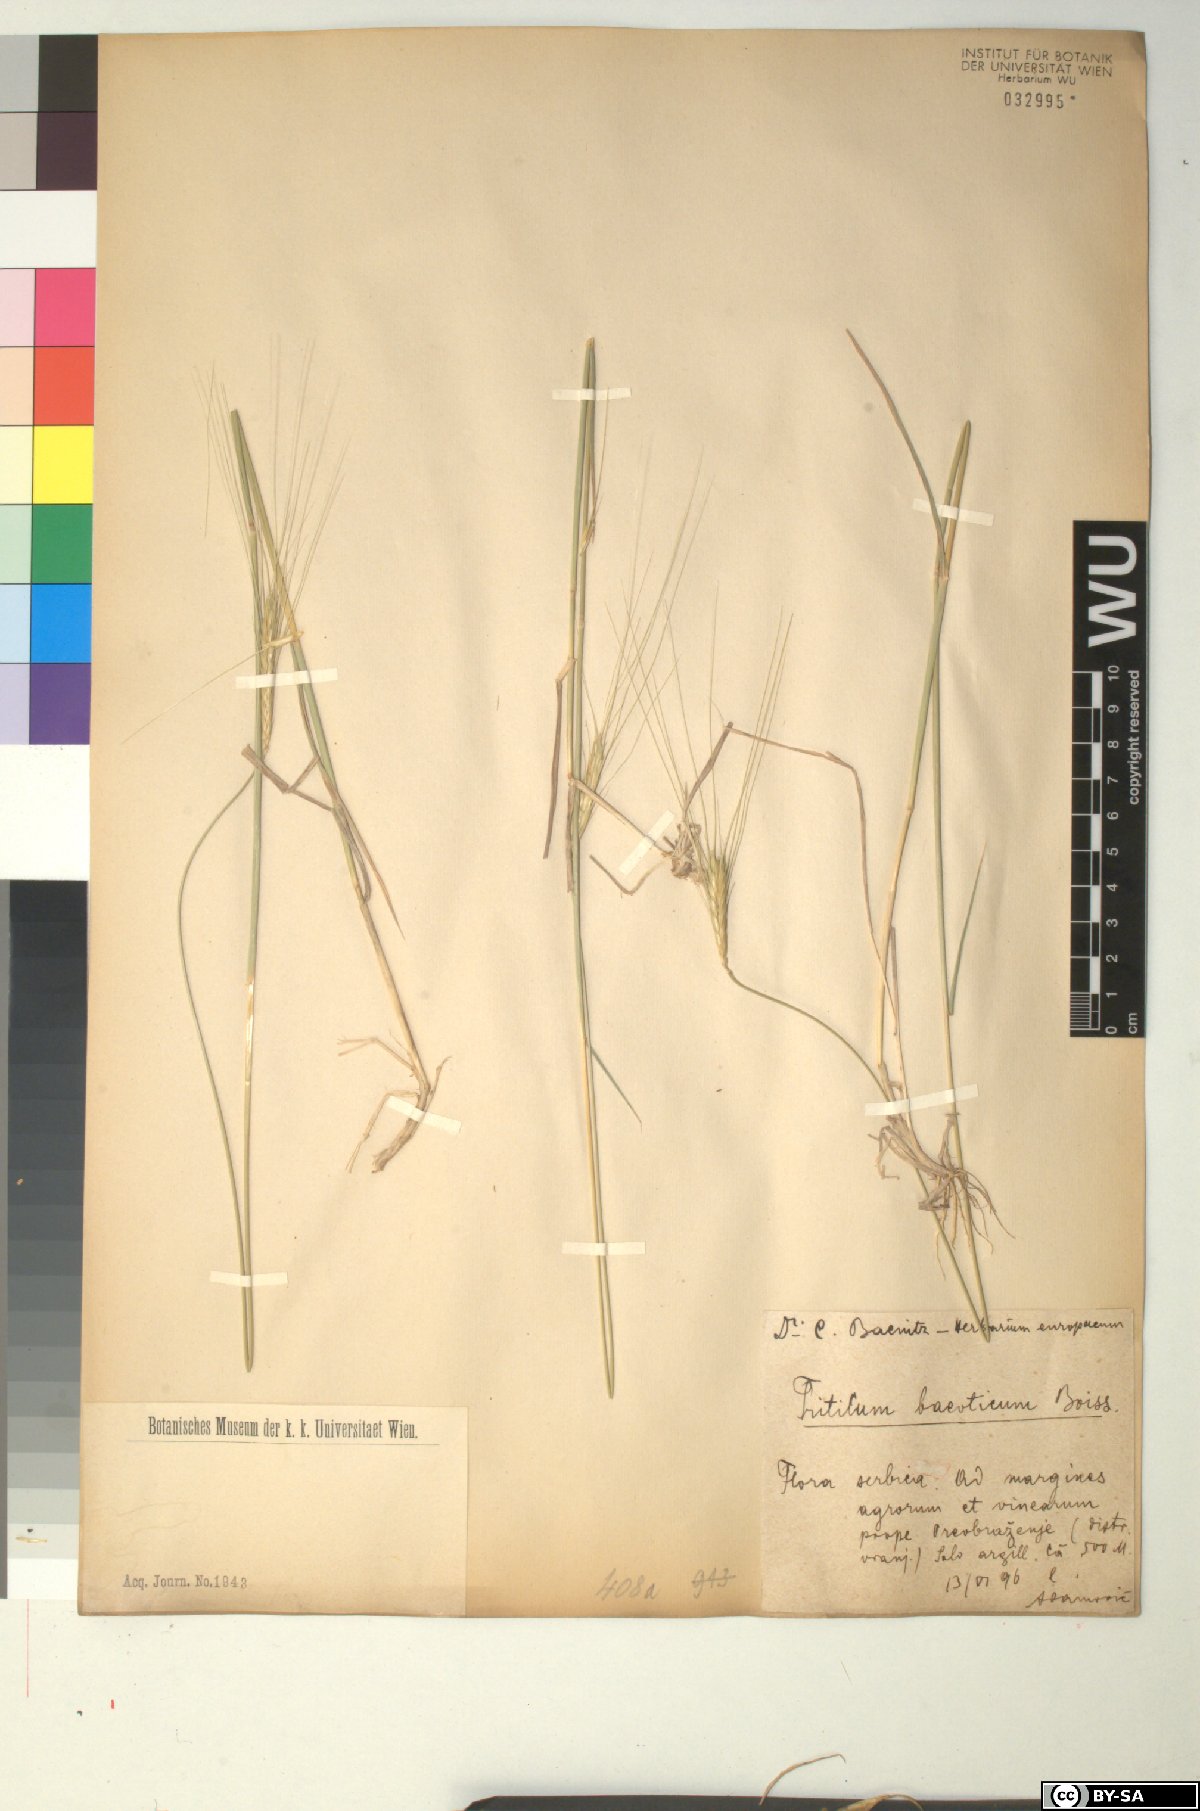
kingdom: Plantae
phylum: Tracheophyta
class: Liliopsida
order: Poales
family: Poaceae
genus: Triticum
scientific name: Triticum monococcum
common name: Einkorn
